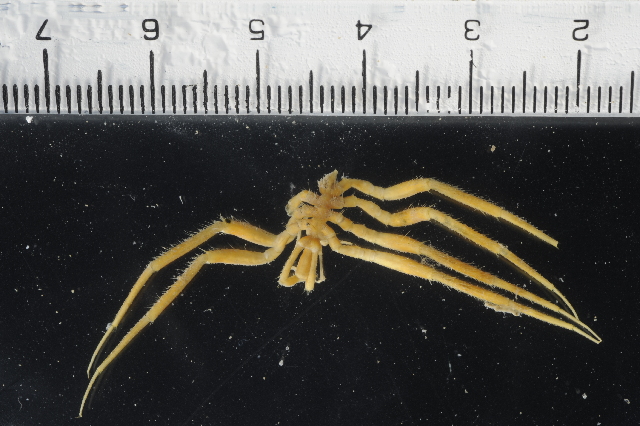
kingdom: Animalia
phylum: Arthropoda
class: Pycnogonida
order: Pantopoda
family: Nymphonidae
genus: Nymphon
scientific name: Nymphon australe
